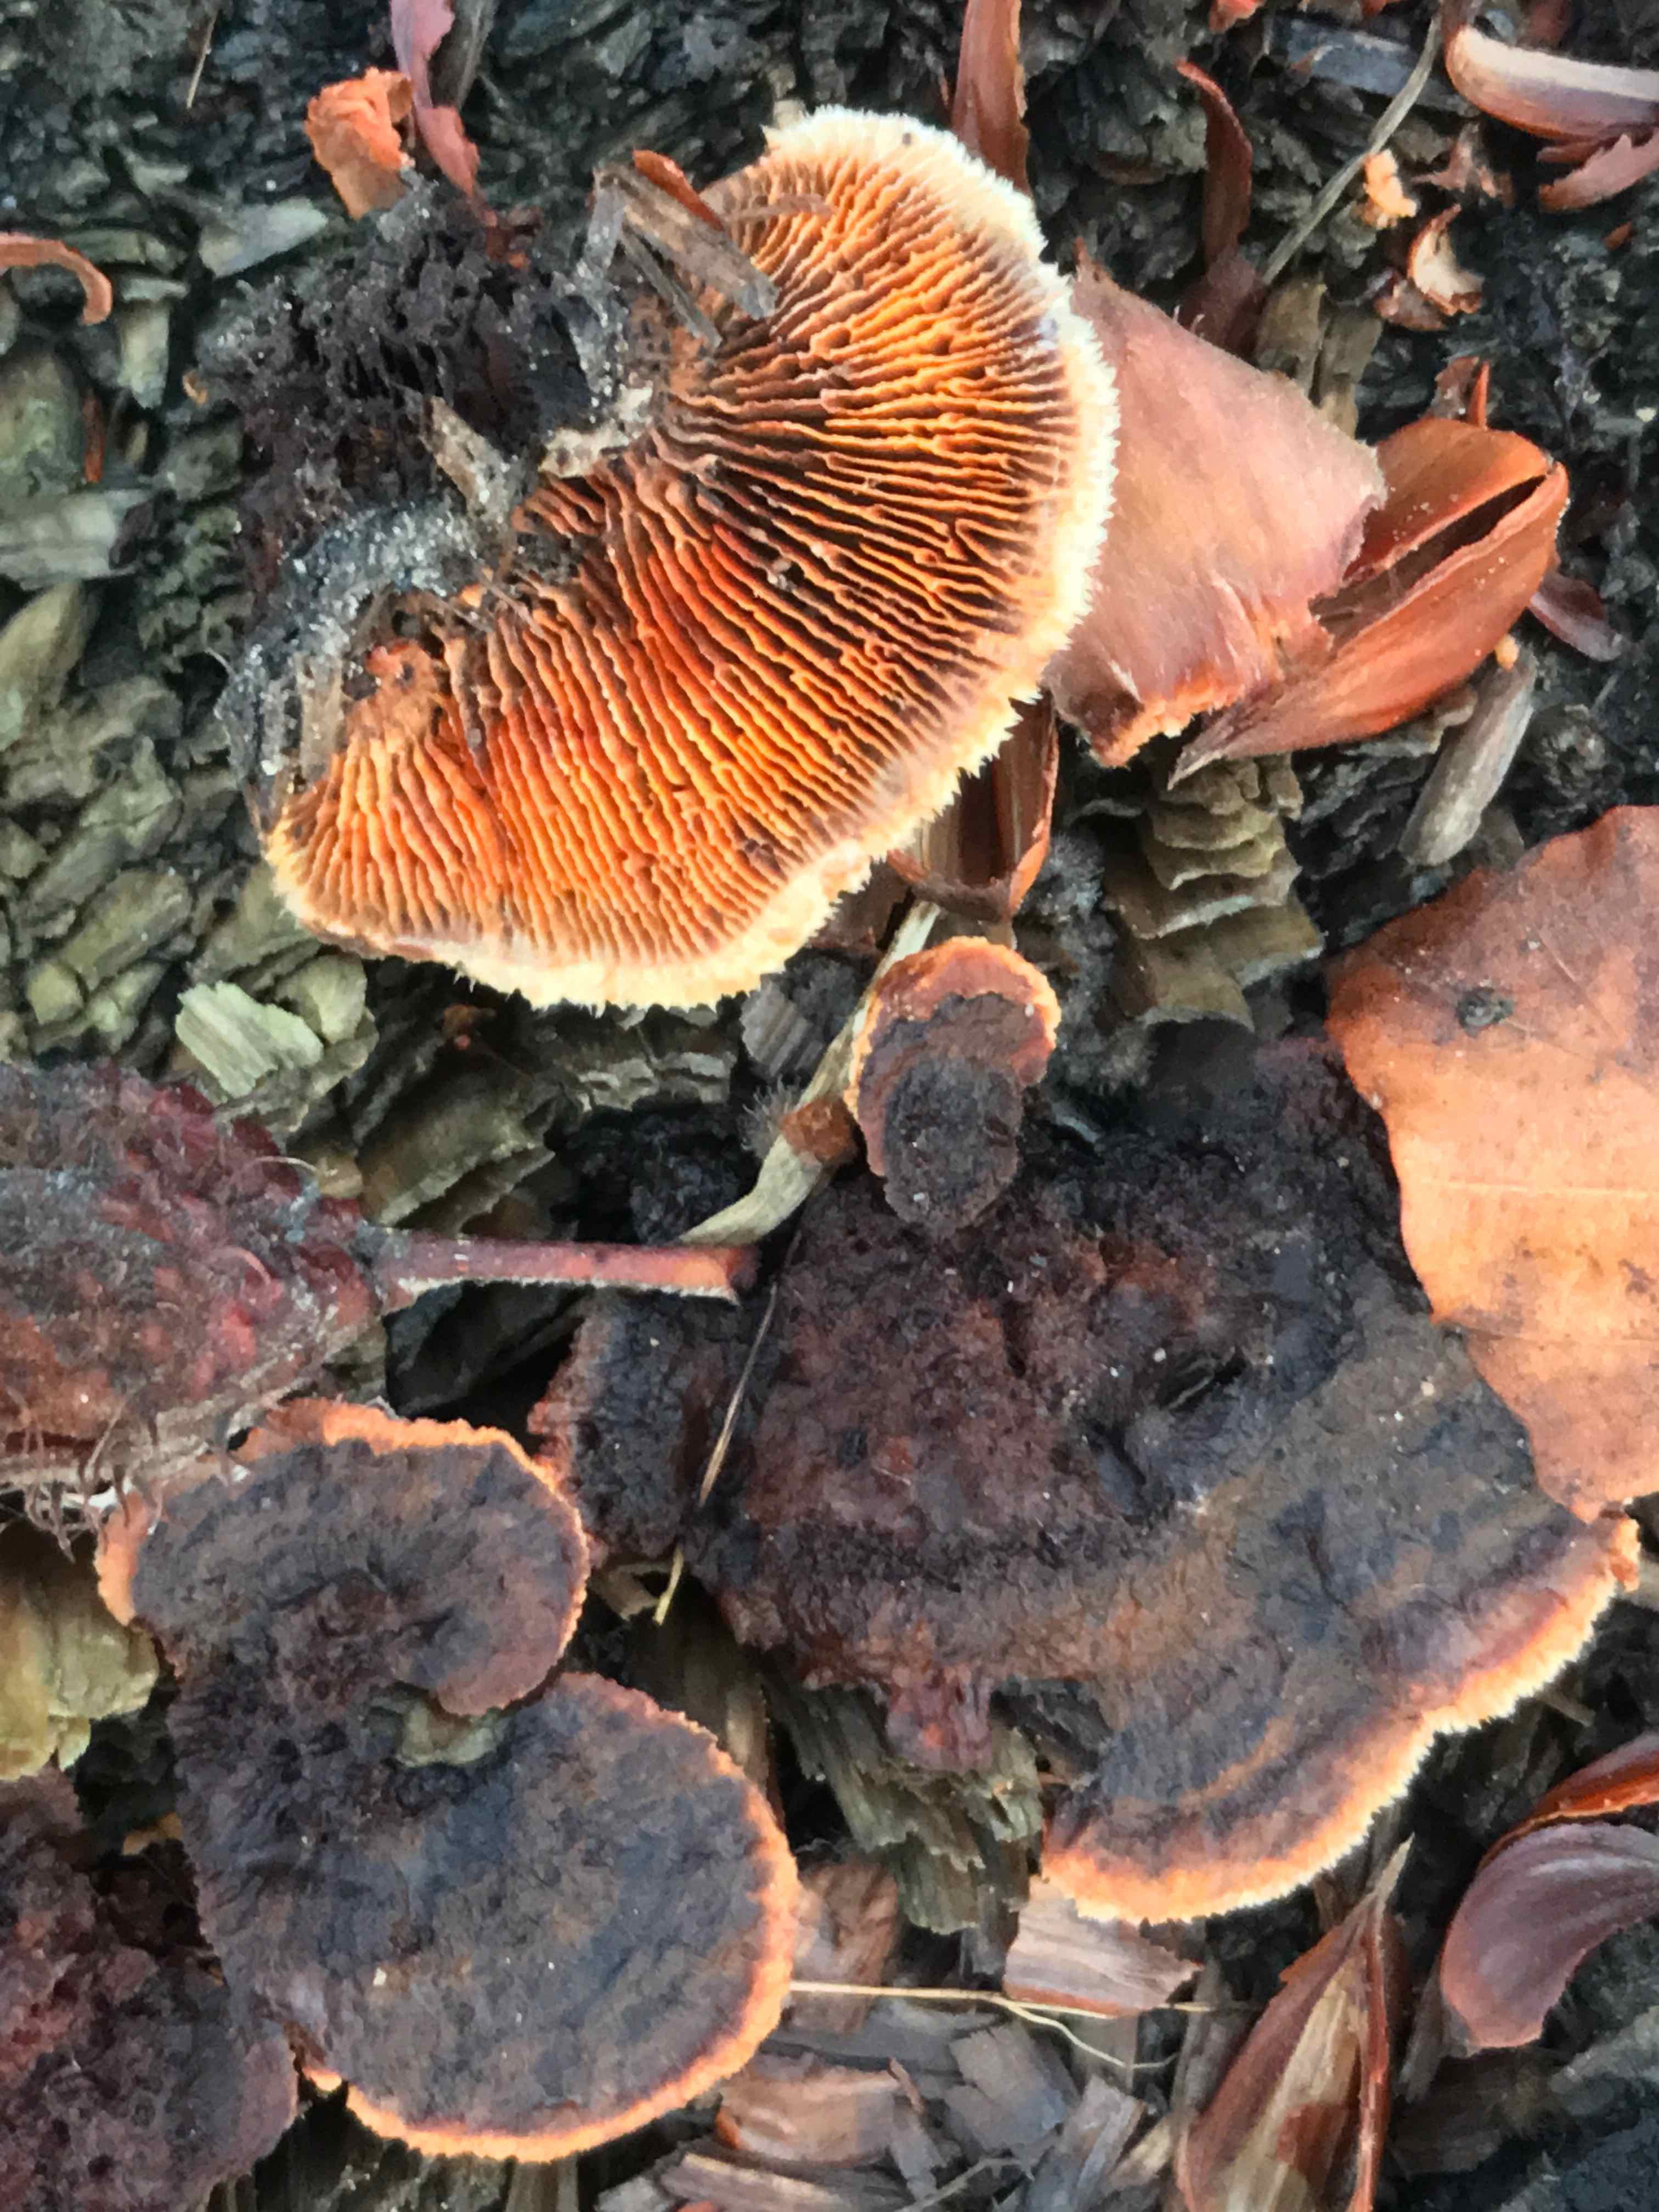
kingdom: Fungi
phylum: Basidiomycota
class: Agaricomycetes
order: Gloeophyllales
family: Gloeophyllaceae
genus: Gloeophyllum
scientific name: Gloeophyllum sepiarium
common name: fyrre-korkhat
